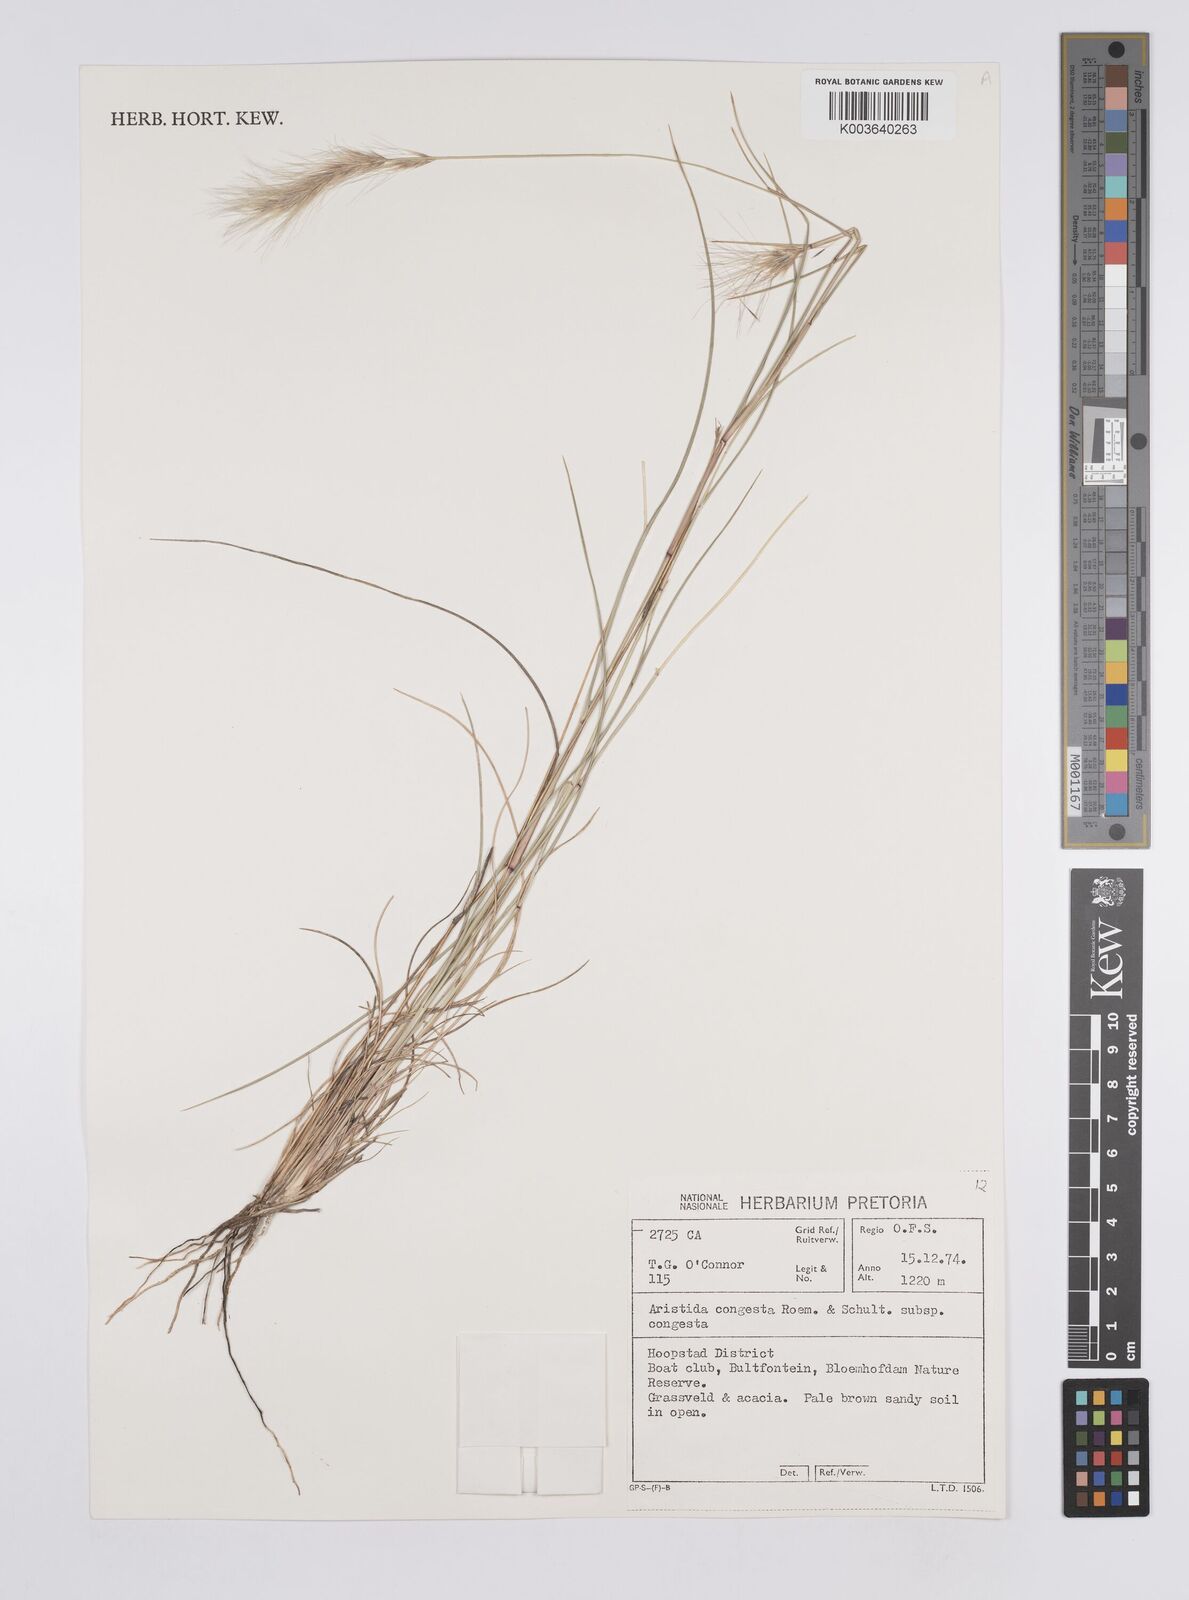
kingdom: Plantae
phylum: Tracheophyta
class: Liliopsida
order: Poales
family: Poaceae
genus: Aristida
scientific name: Aristida congesta
